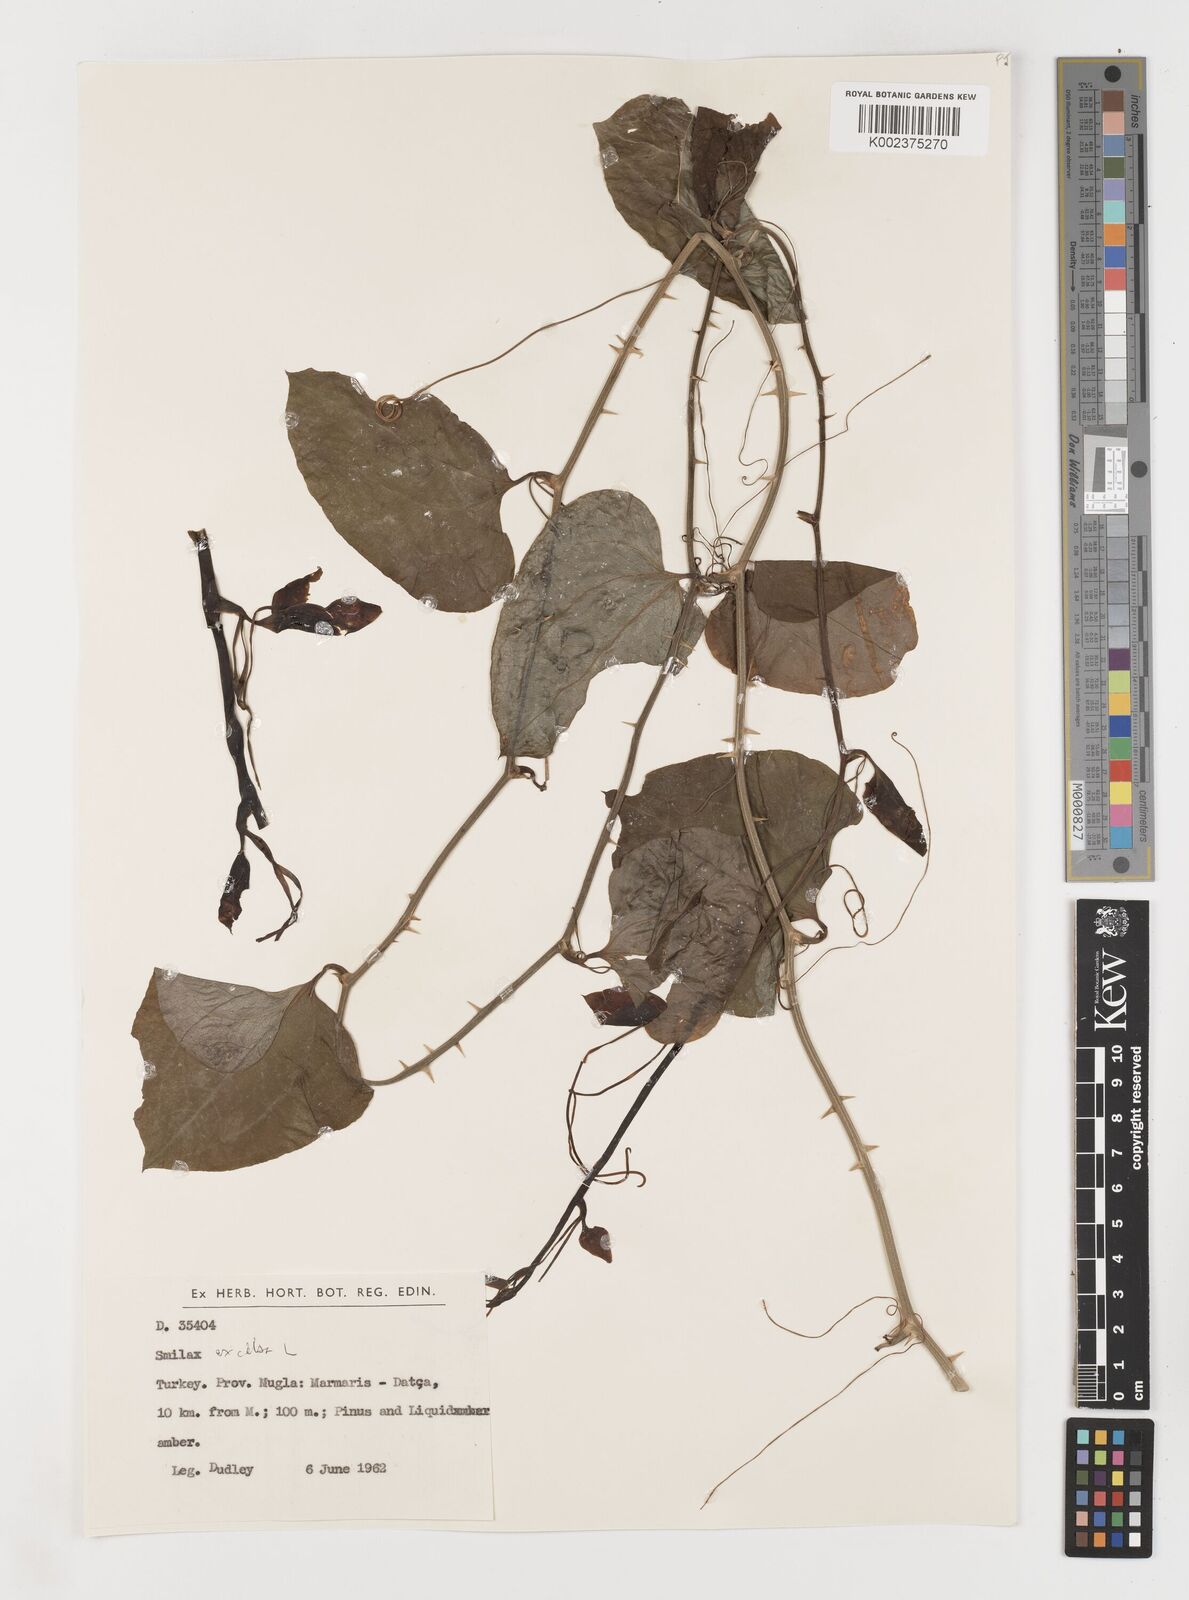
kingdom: Plantae
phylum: Tracheophyta
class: Liliopsida
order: Liliales
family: Smilacaceae
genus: Smilax
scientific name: Smilax excelsa
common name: Larger smilax
